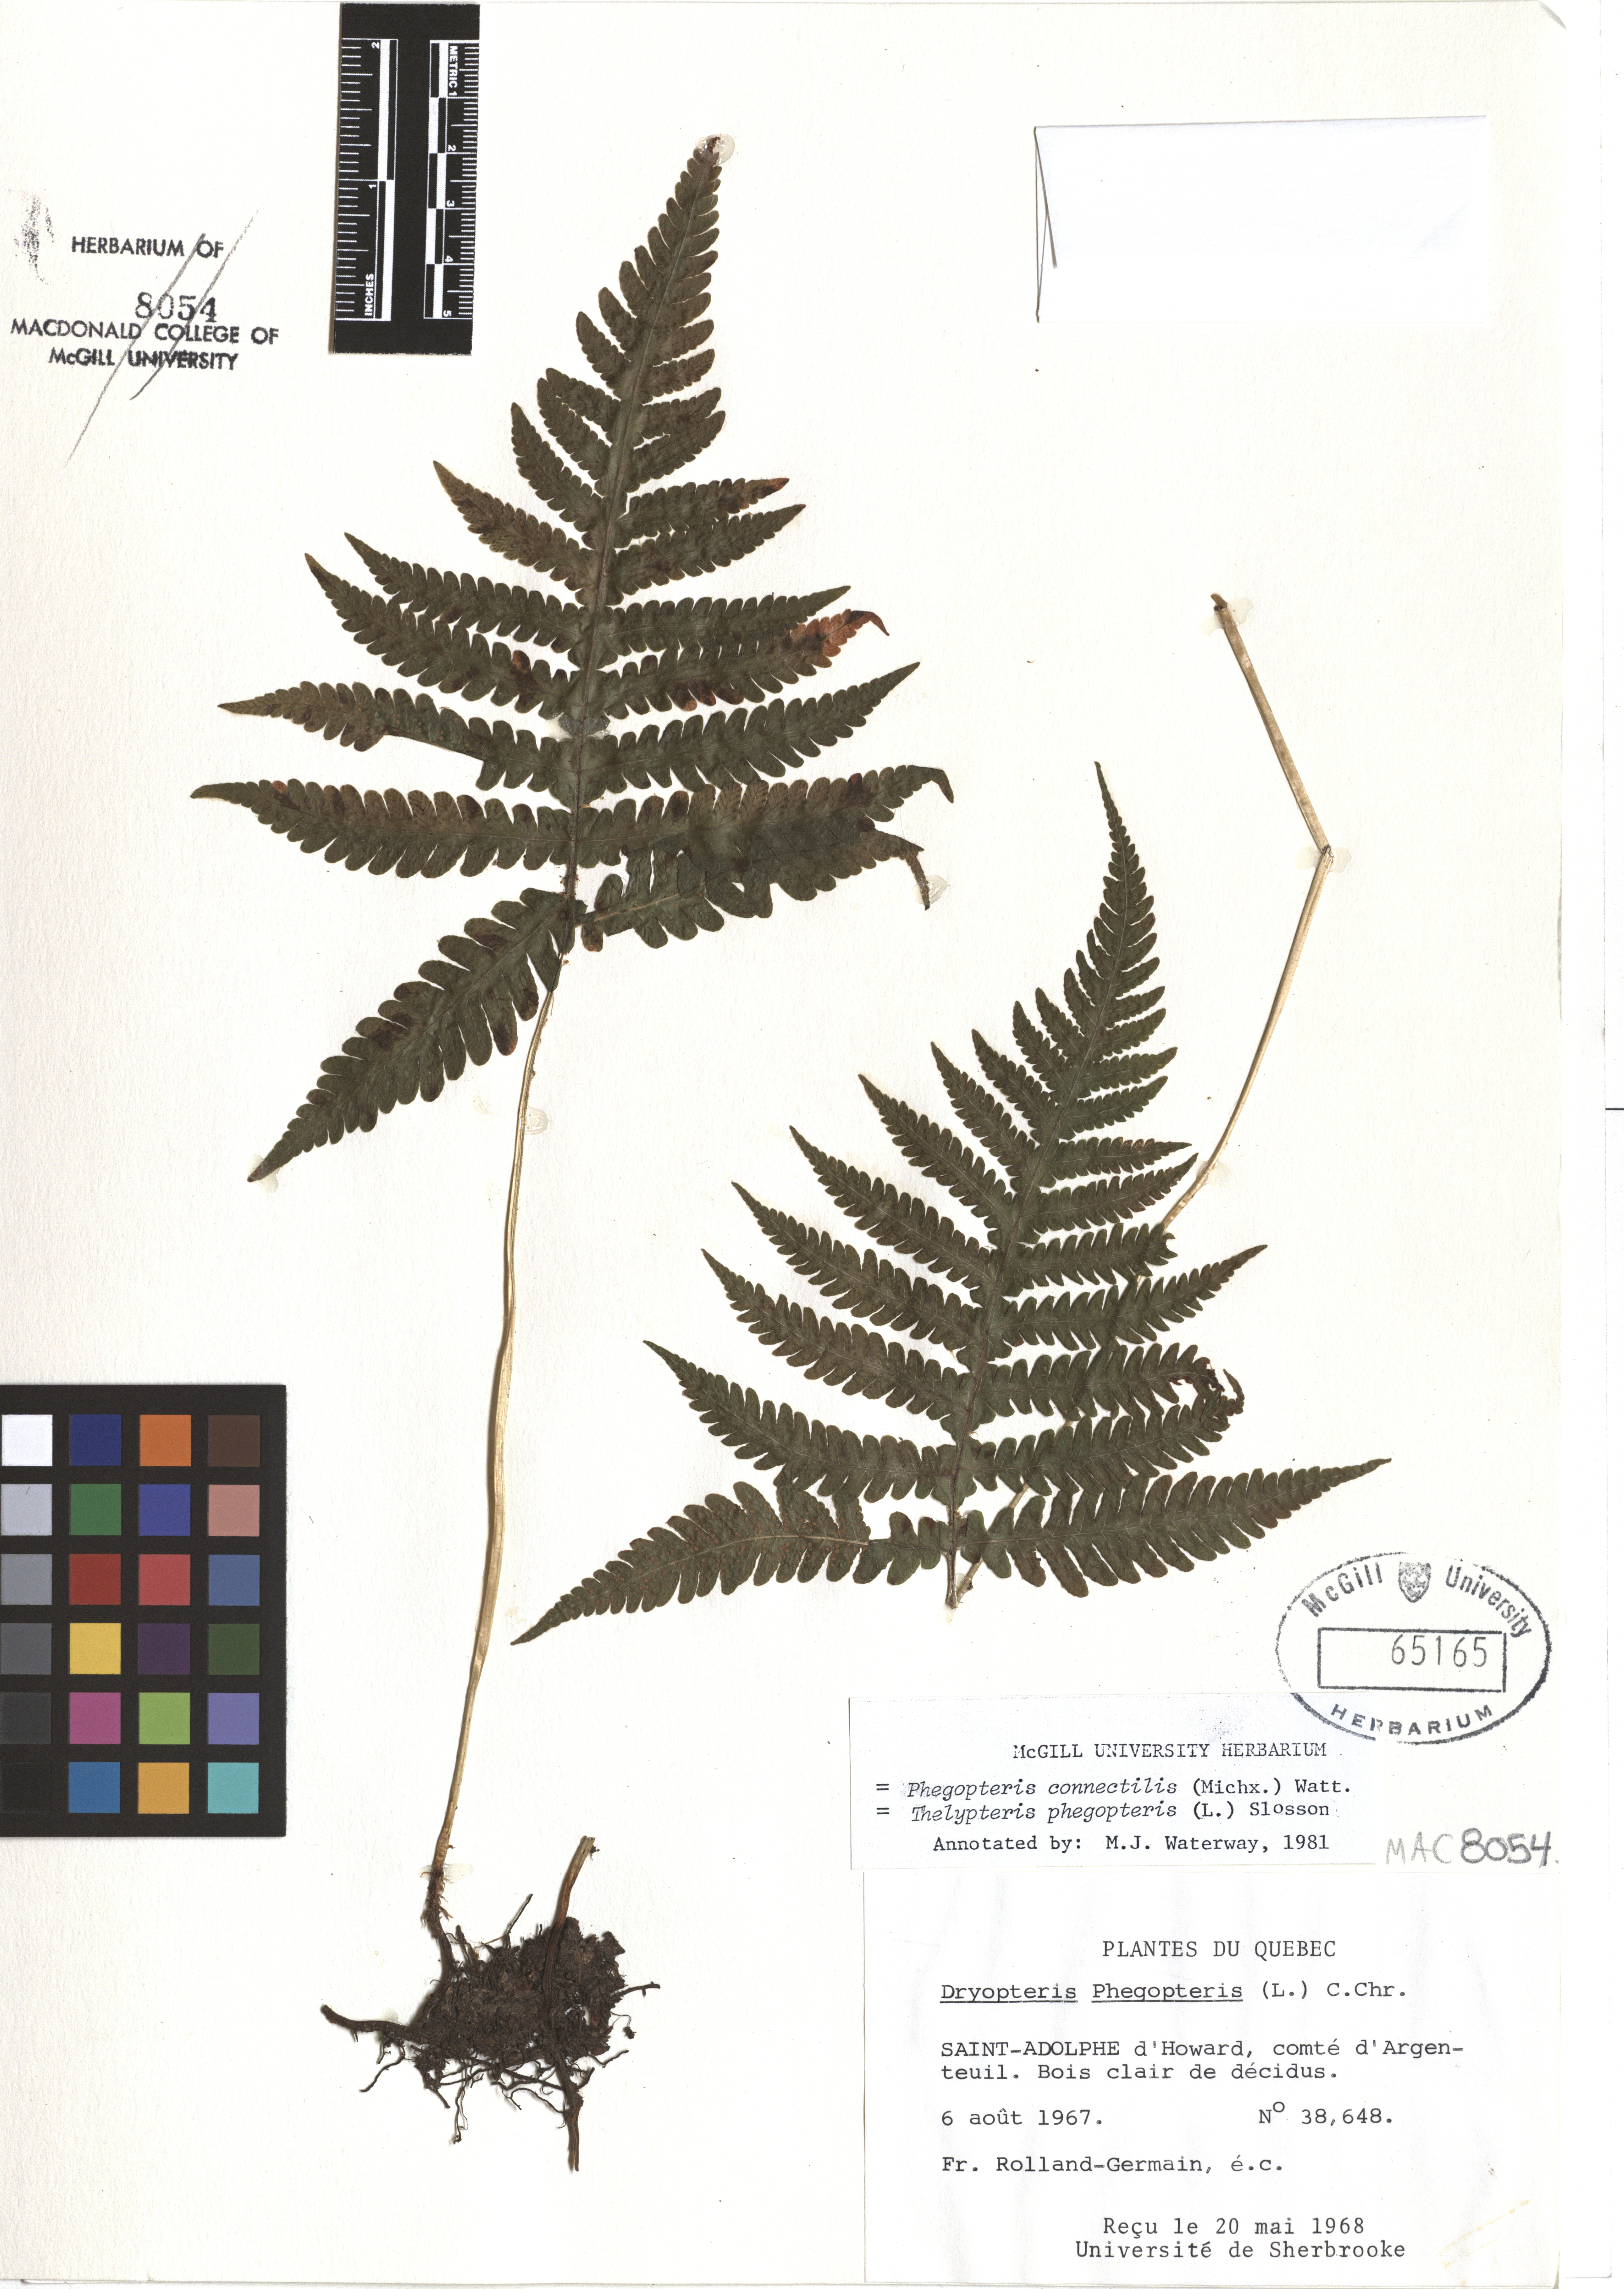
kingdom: Plantae
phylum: Tracheophyta
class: Polypodiopsida
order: Polypodiales
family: Thelypteridaceae
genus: Phegopteris
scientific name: Phegopteris connectilis
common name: Beech fern
